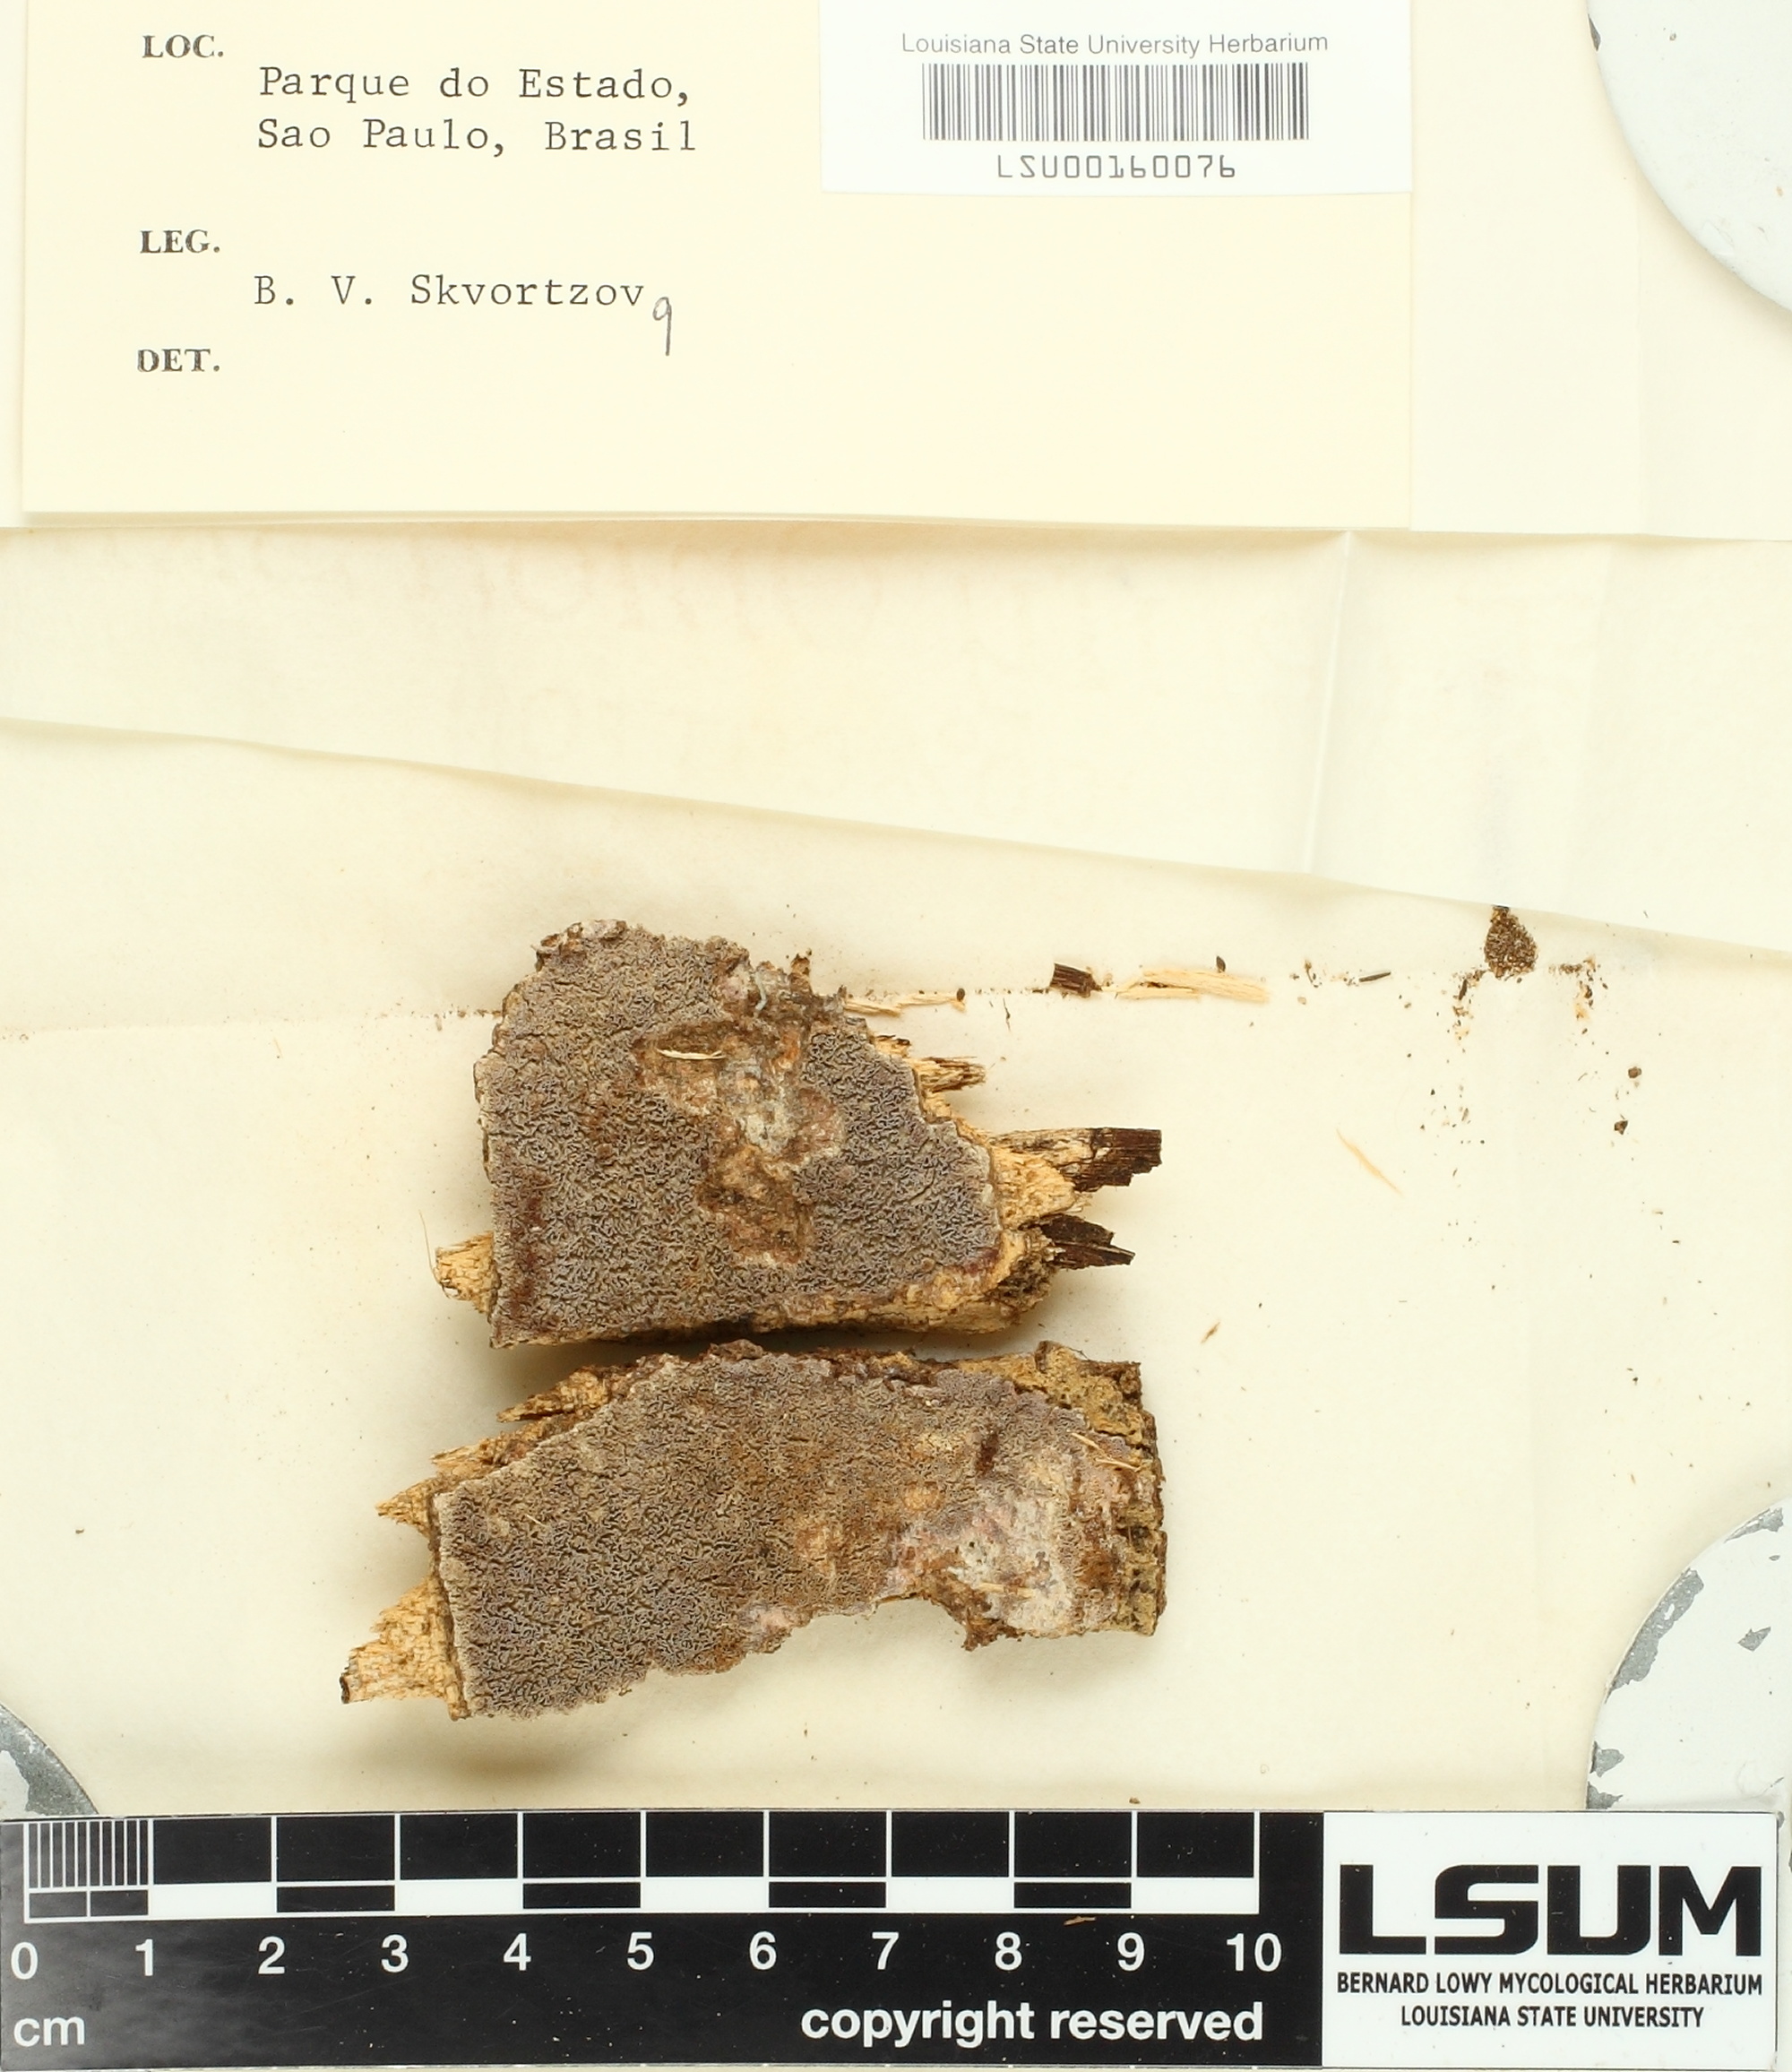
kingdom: Fungi
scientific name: Fungi
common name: Fungi
